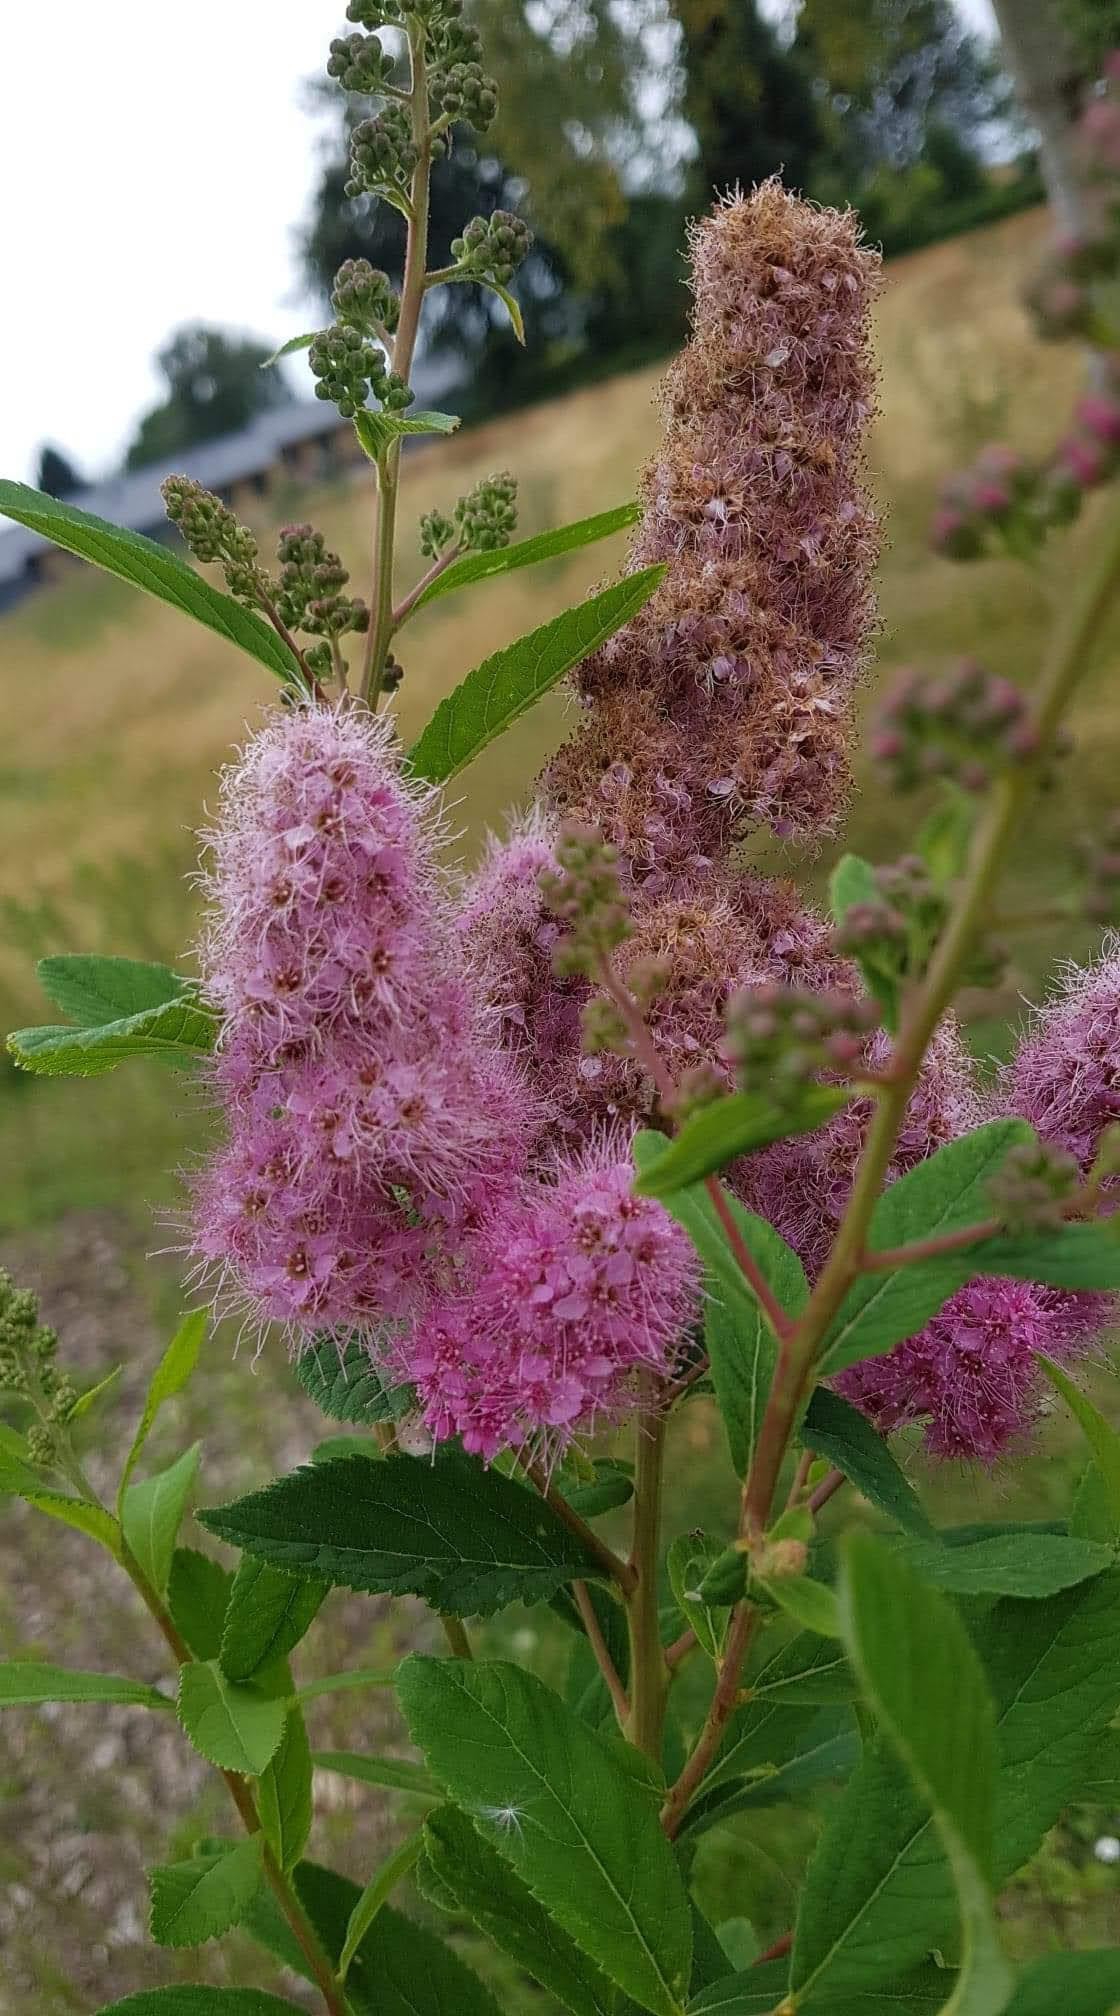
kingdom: Plantae
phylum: Tracheophyta
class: Magnoliopsida
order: Rosales
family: Rosaceae
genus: Spiraea
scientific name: Spiraea billardii
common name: Klase-spiræa
